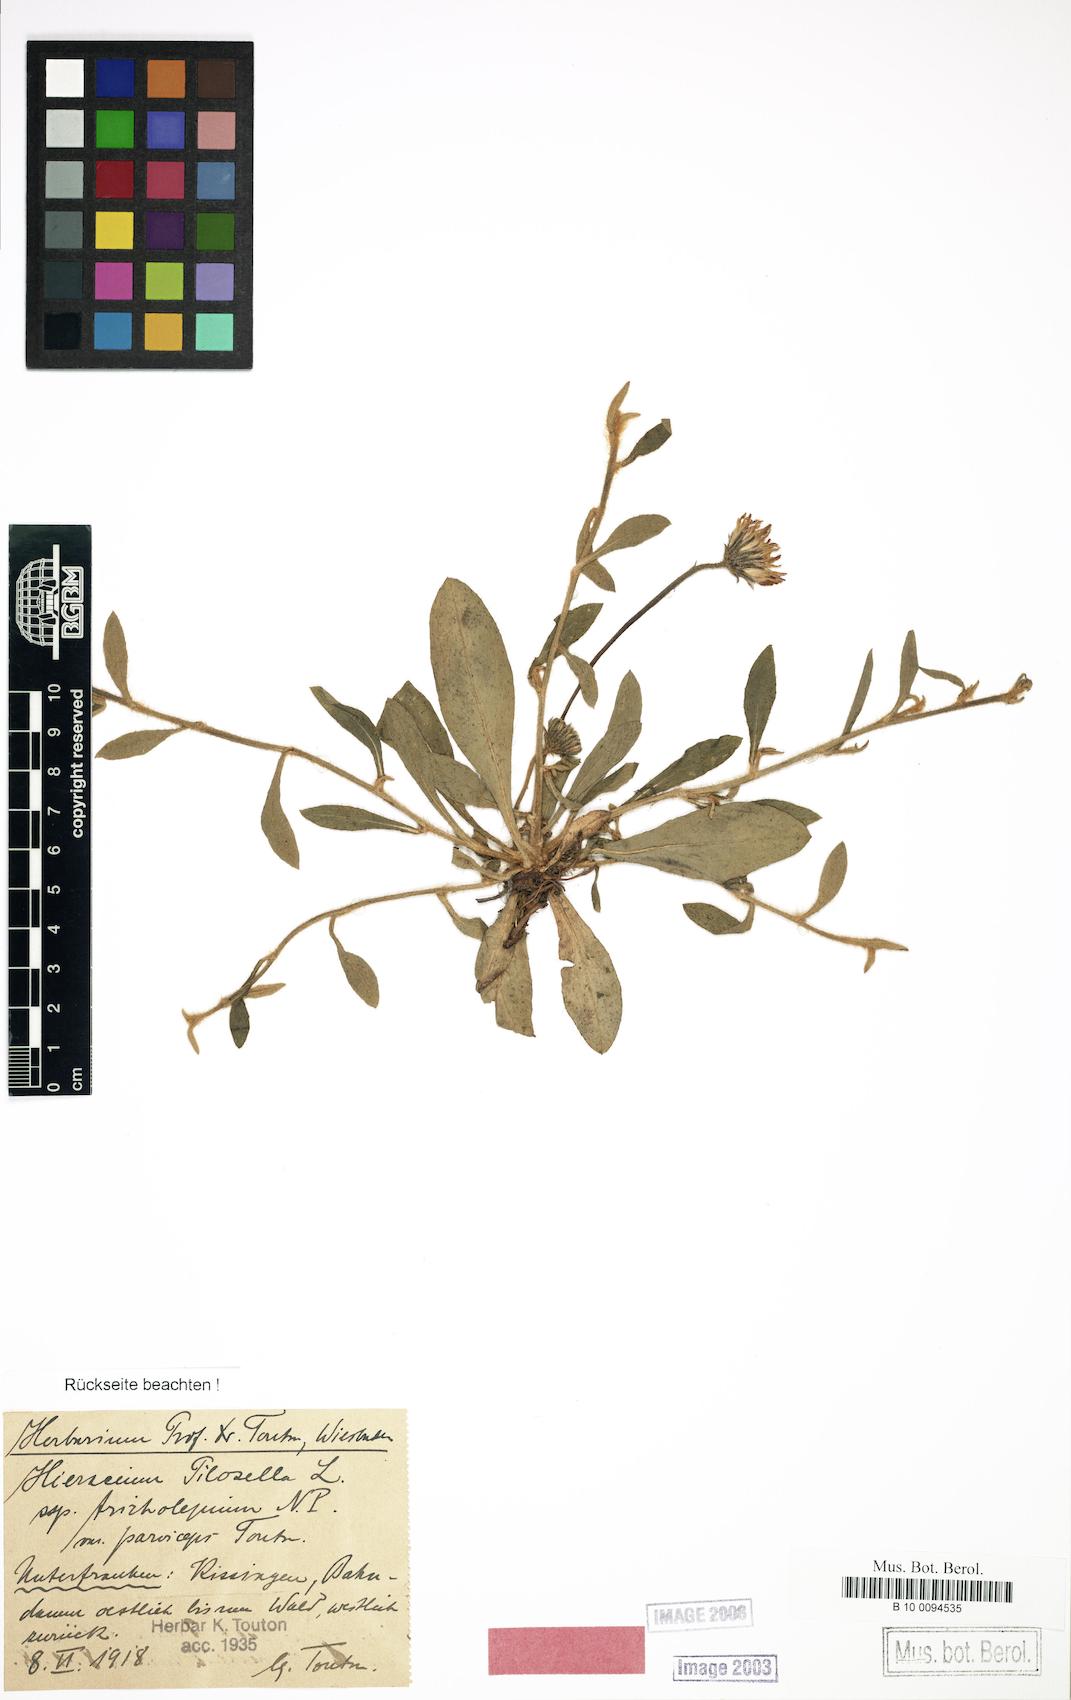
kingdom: Plantae
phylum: Tracheophyta
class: Magnoliopsida
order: Asterales
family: Asteraceae
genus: Pilosella
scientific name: Pilosella officinarum
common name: Mouse-ear hawkweed
